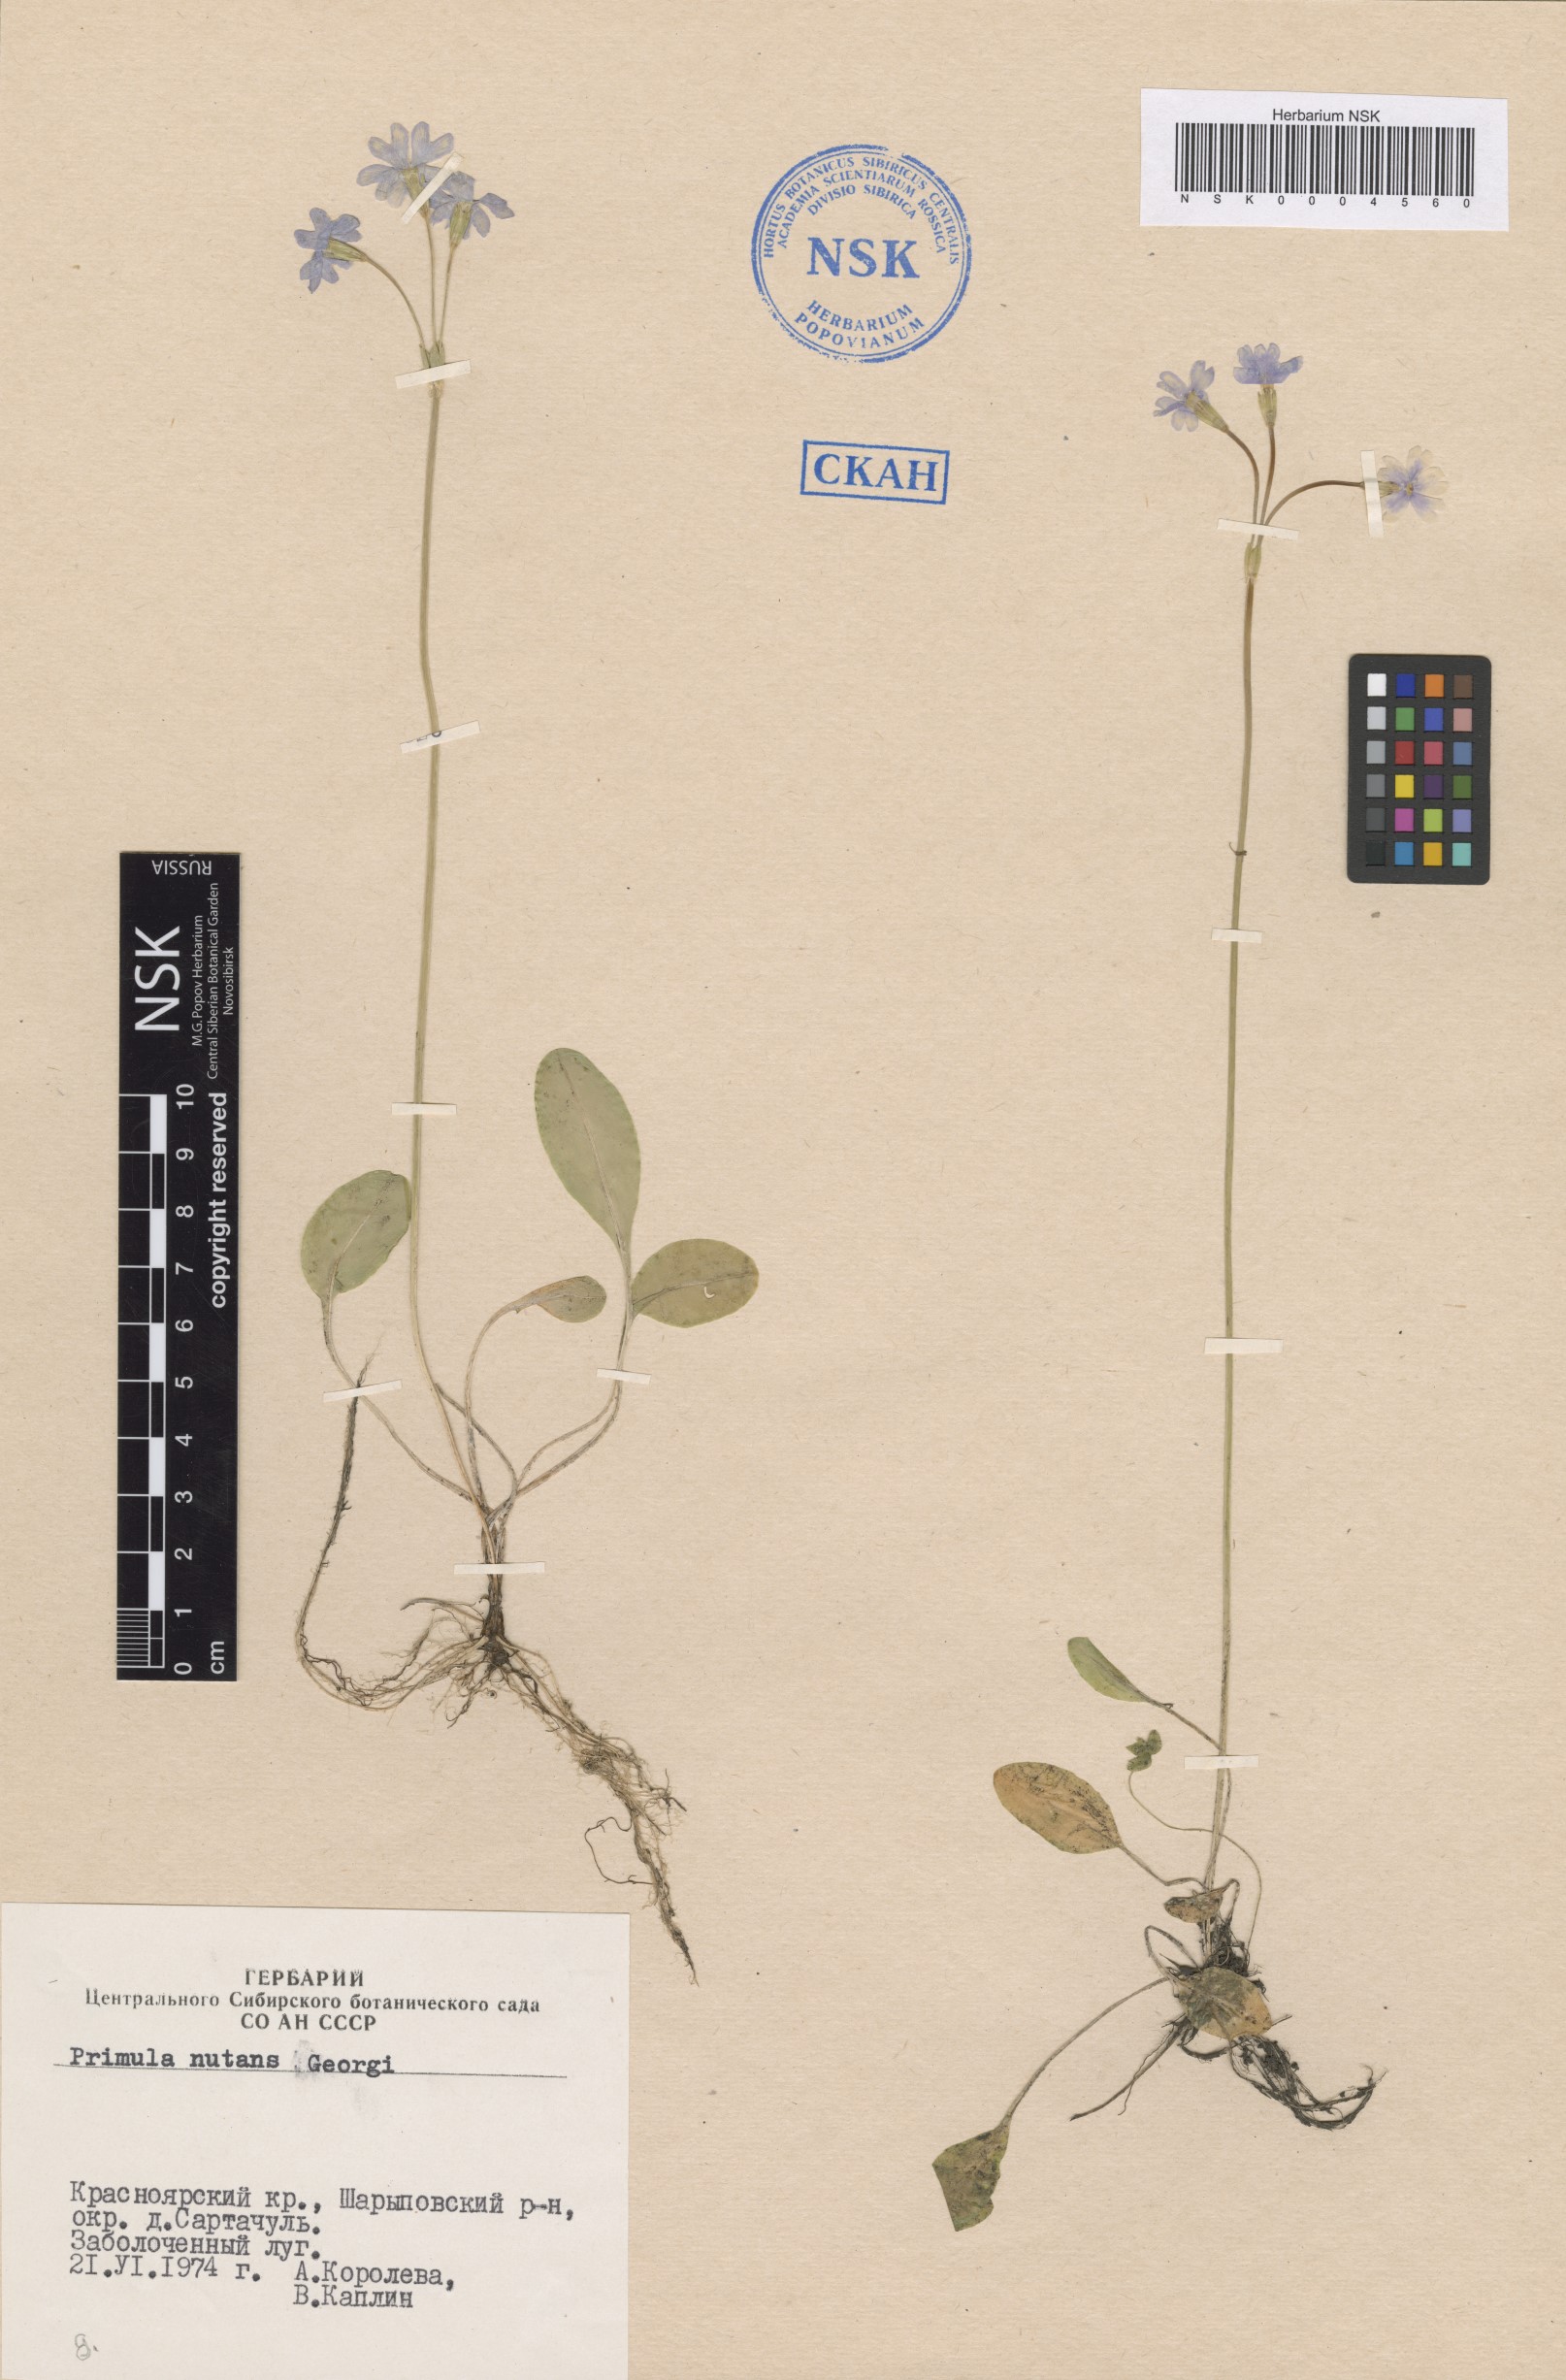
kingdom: Plantae
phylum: Tracheophyta
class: Magnoliopsida
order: Ericales
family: Primulaceae
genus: Primula
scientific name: Primula nutans
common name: Siberian primrose
